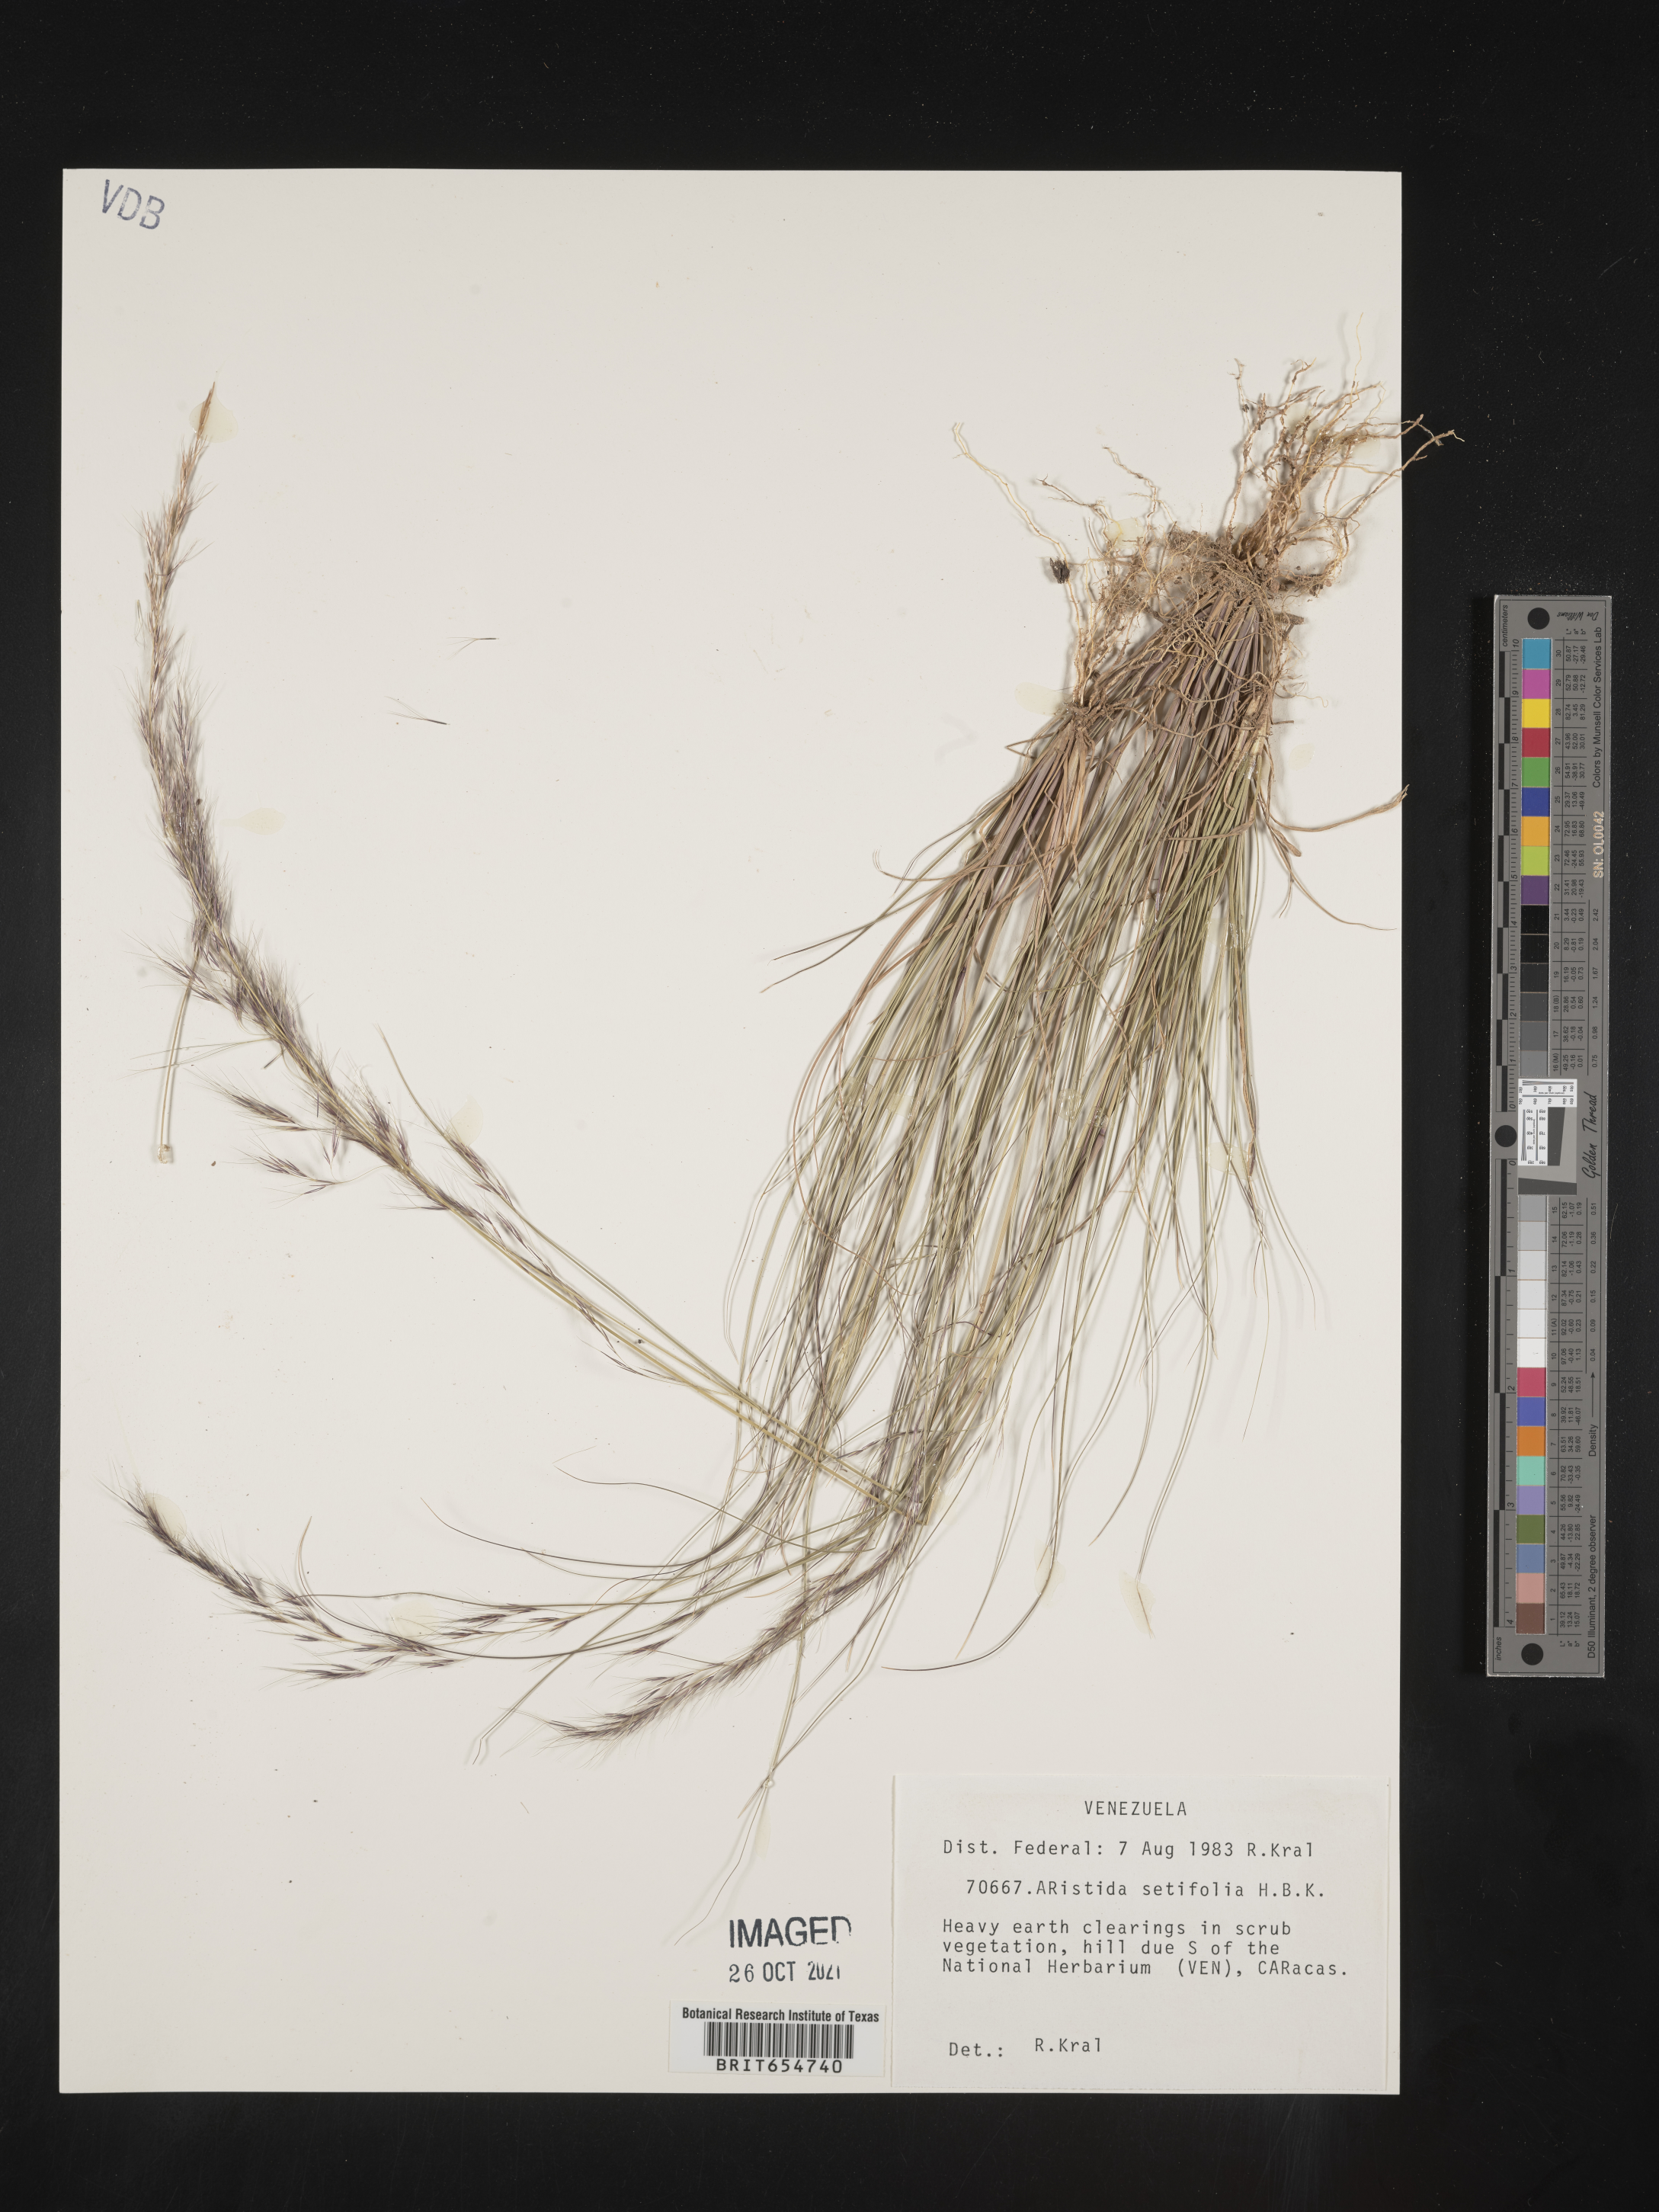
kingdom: Plantae
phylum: Tracheophyta
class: Liliopsida
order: Poales
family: Poaceae
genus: Aristida
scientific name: Aristida
